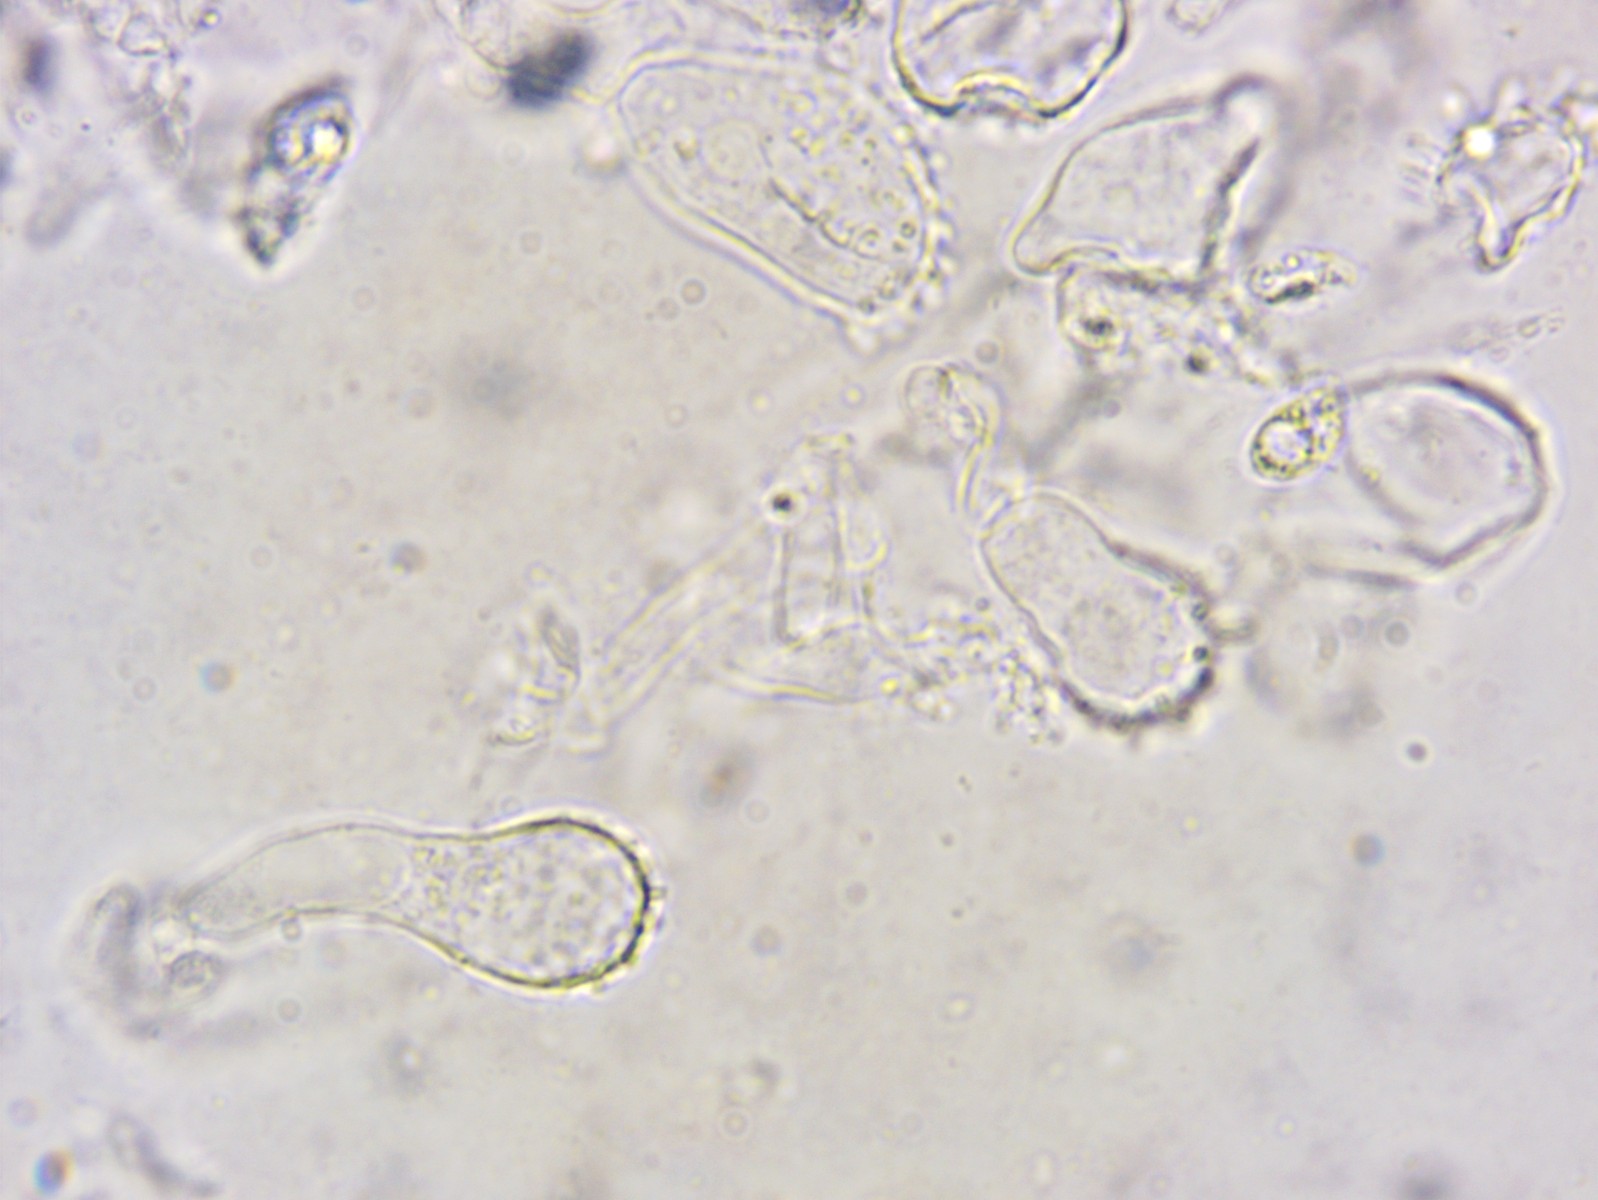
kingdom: Fungi
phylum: Basidiomycota
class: Agaricomycetes
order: Agaricales
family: Mycenaceae
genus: Mycena
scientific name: Mycena metata
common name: rødlig huesvamp
